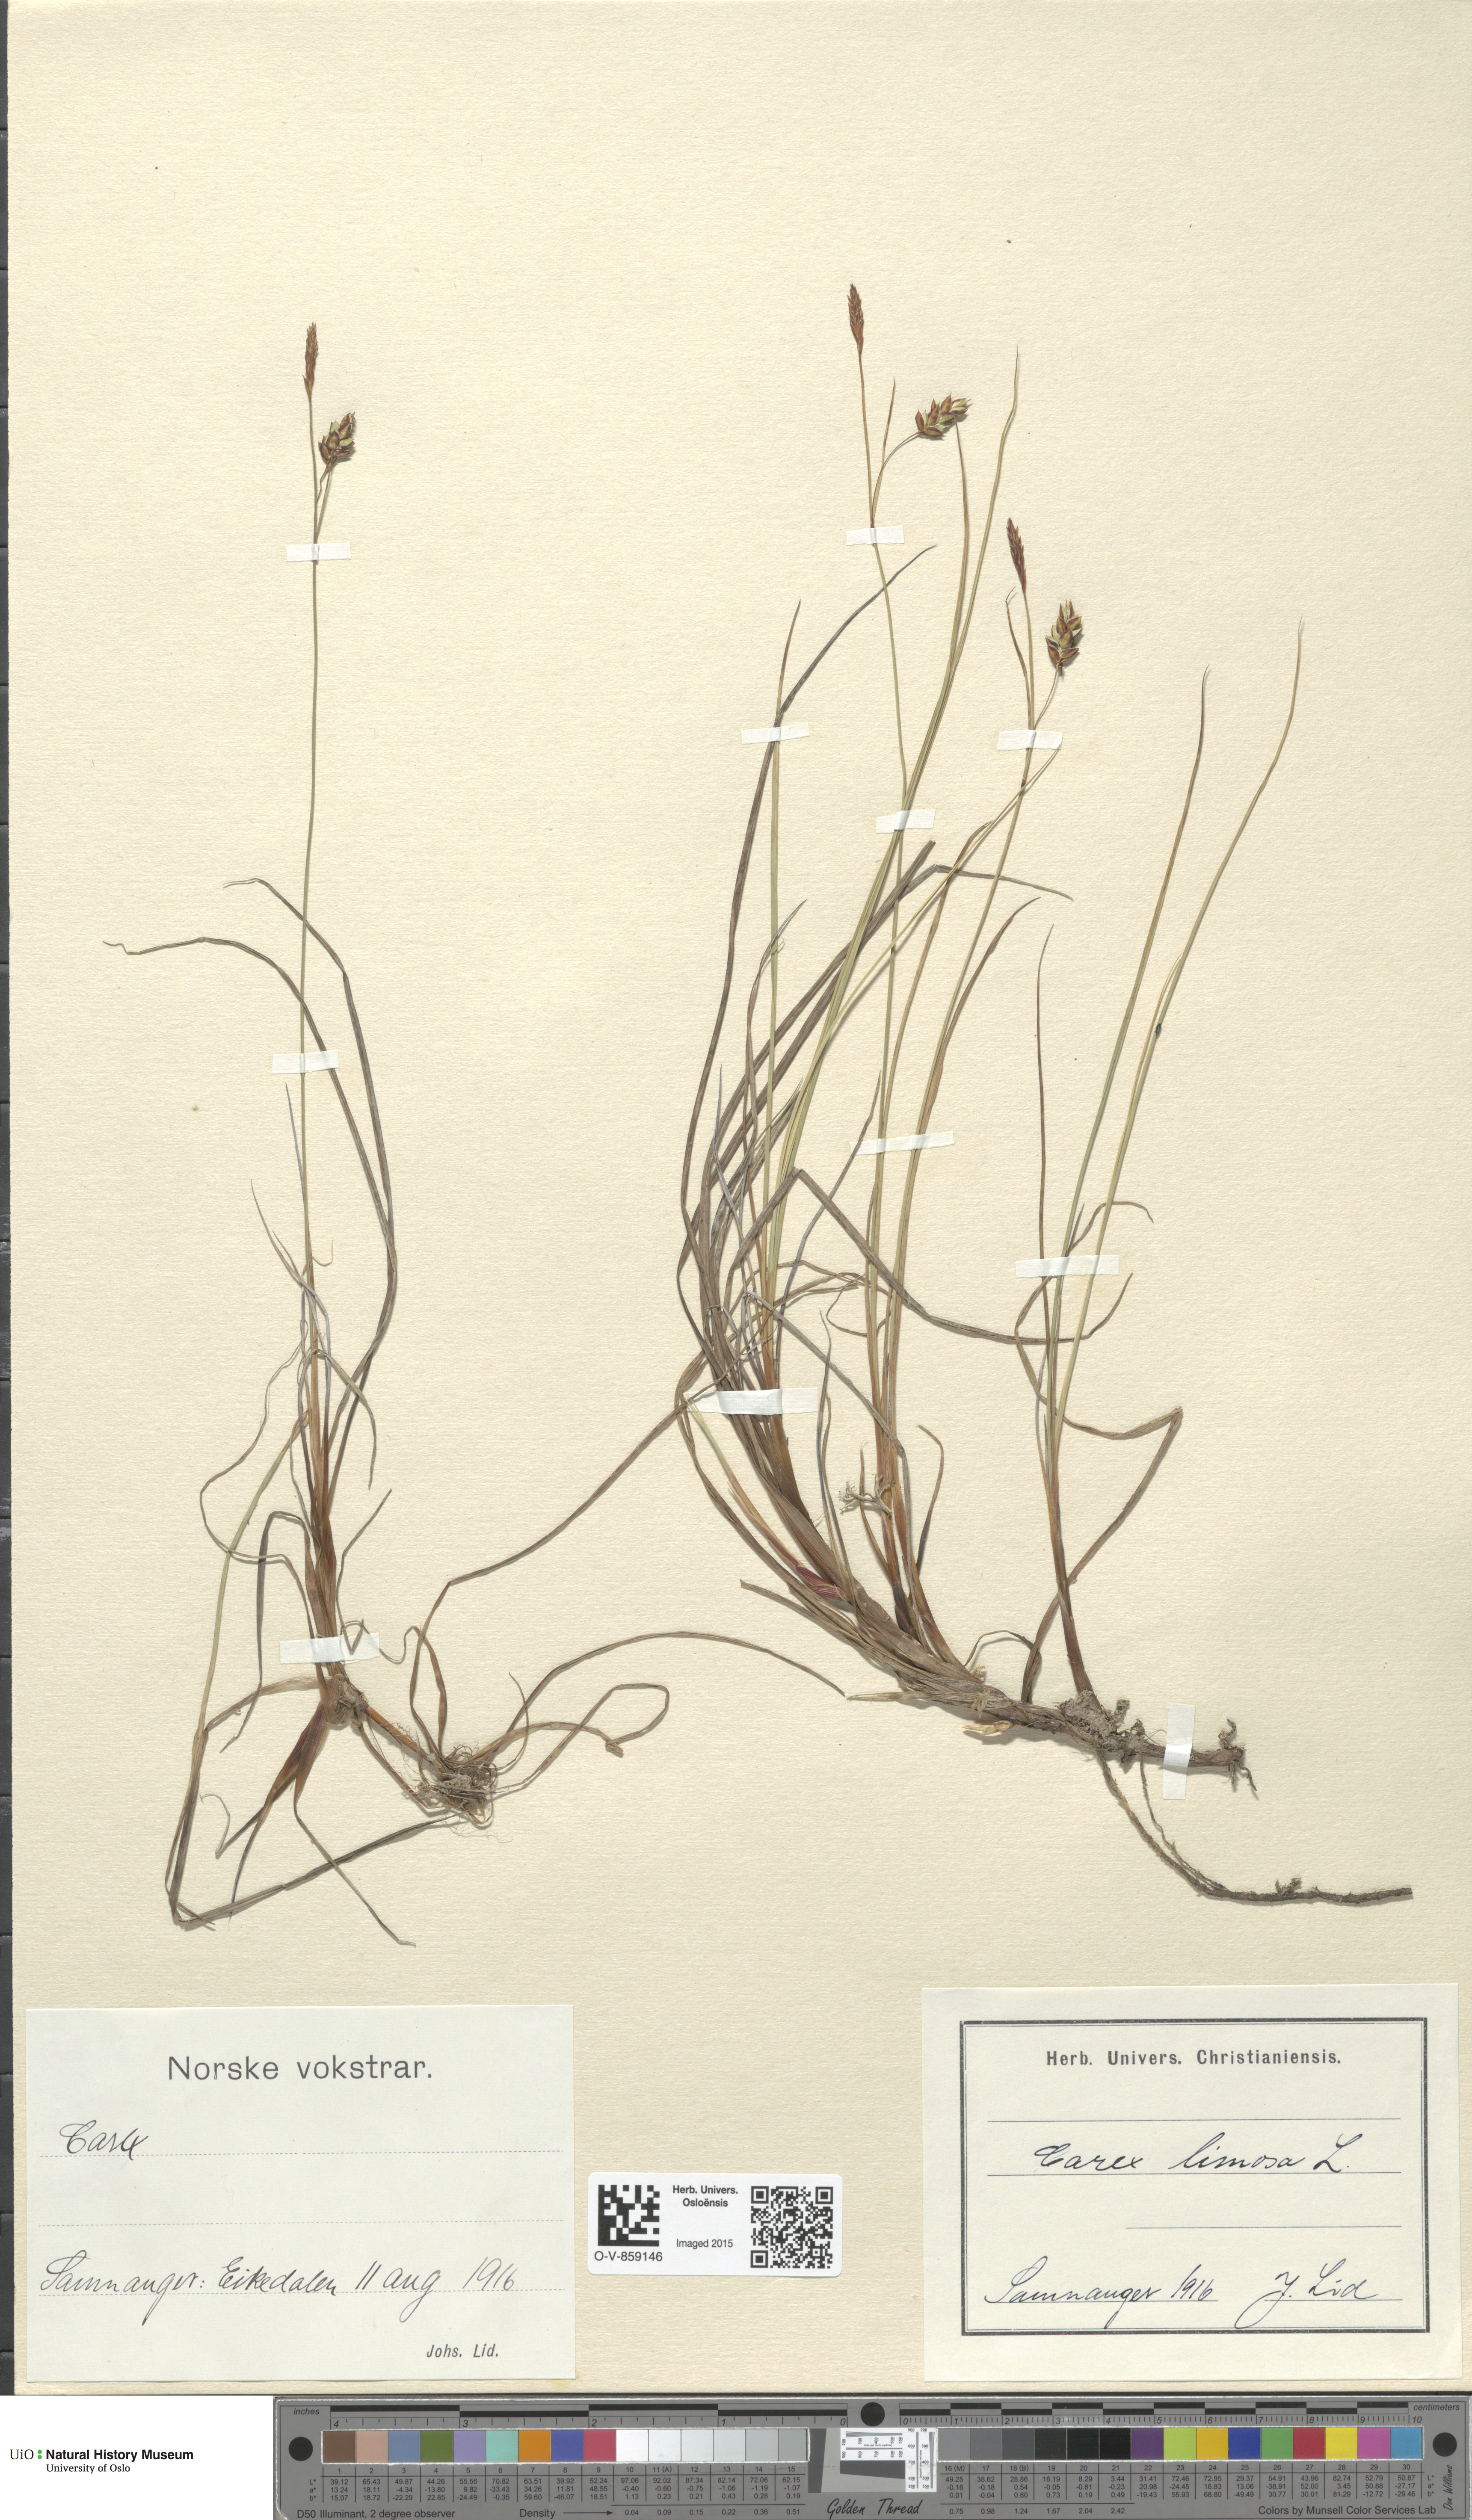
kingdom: Plantae
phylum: Tracheophyta
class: Liliopsida
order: Poales
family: Cyperaceae
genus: Carex
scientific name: Carex limosa
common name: Bog sedge
